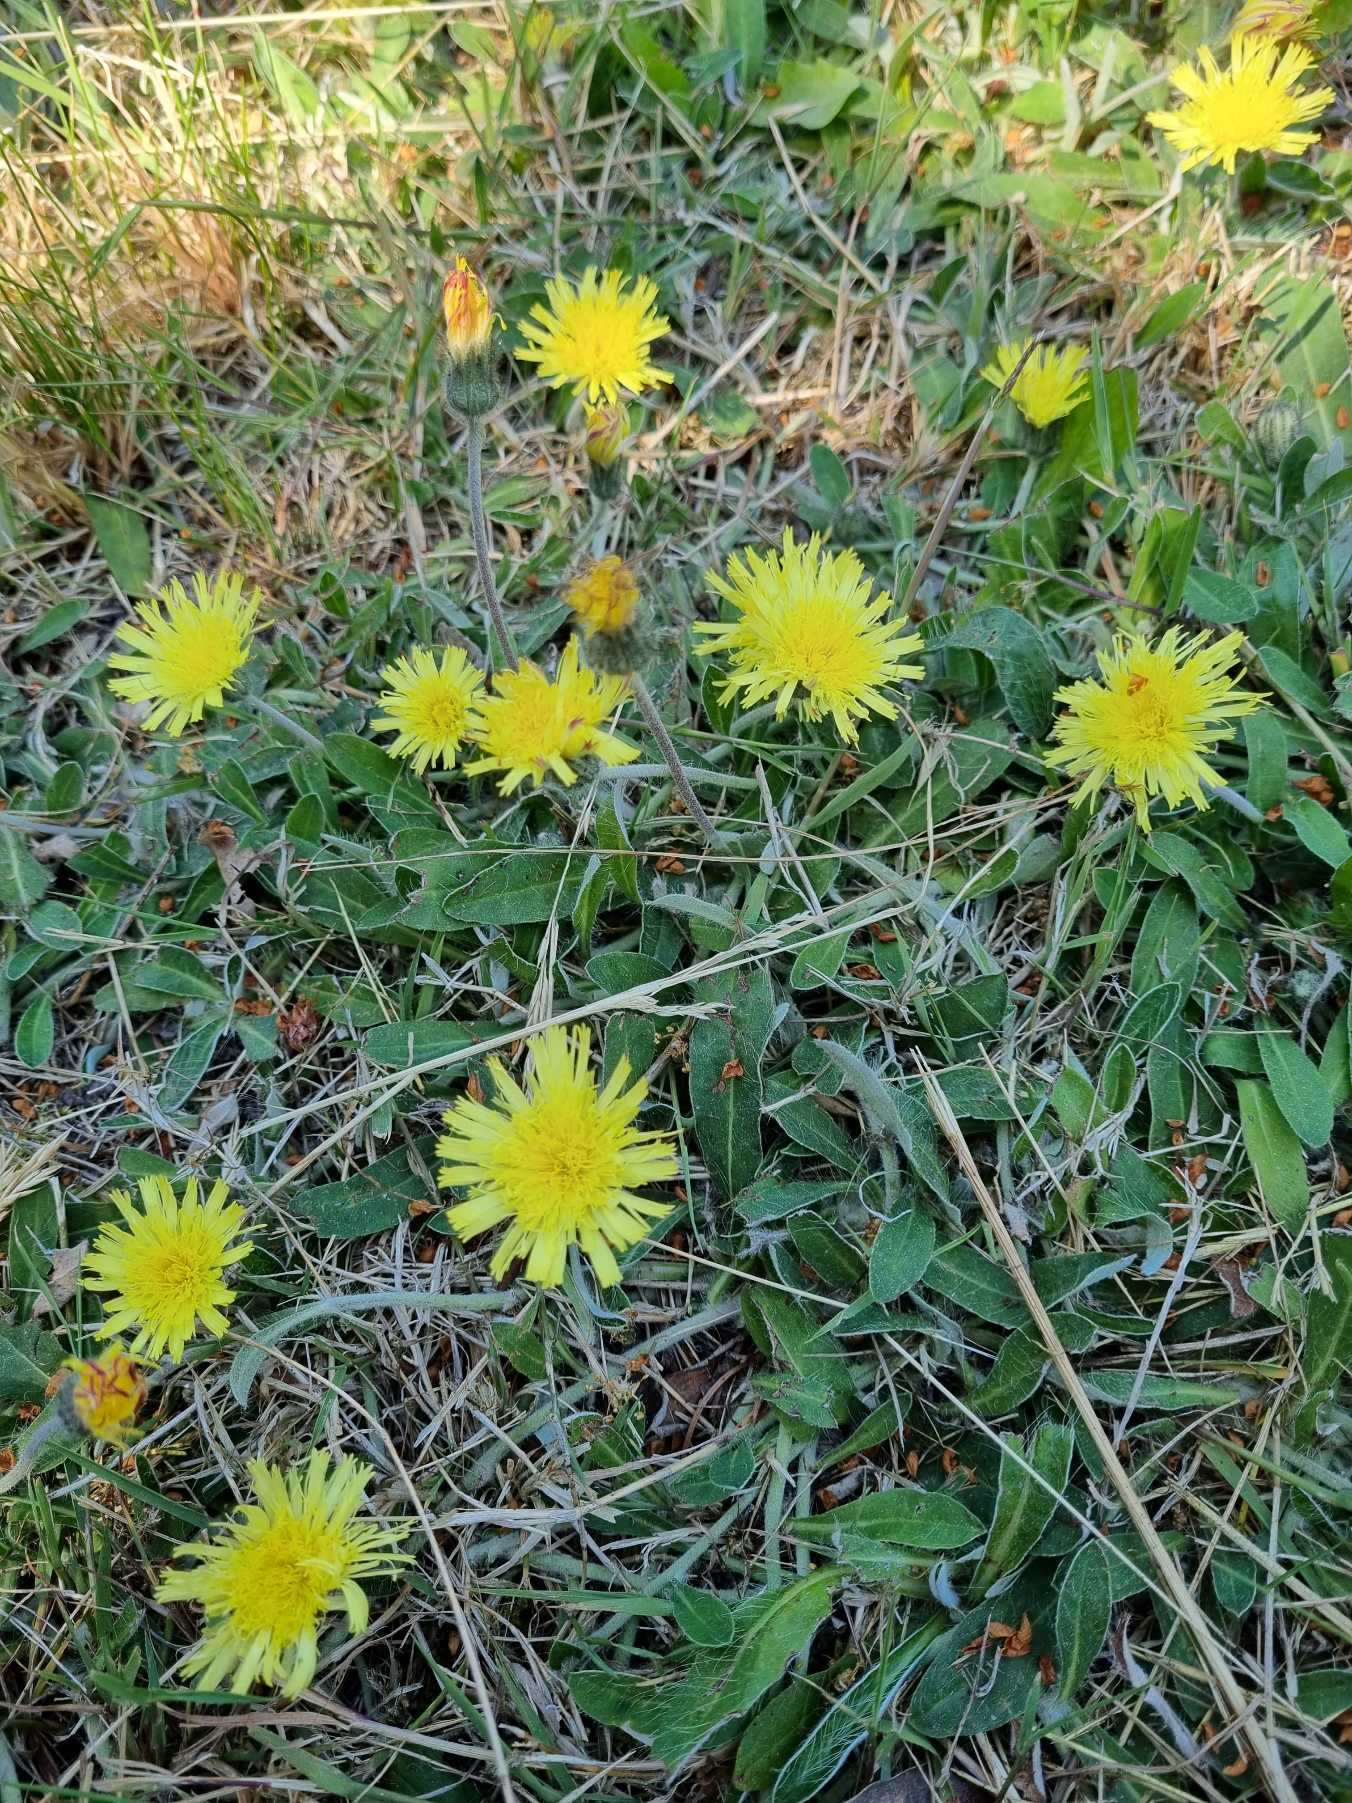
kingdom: Plantae
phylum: Tracheophyta
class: Magnoliopsida
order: Asterales
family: Asteraceae
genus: Pilosella
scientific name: Pilosella officinarum
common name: Håret høgeurt
